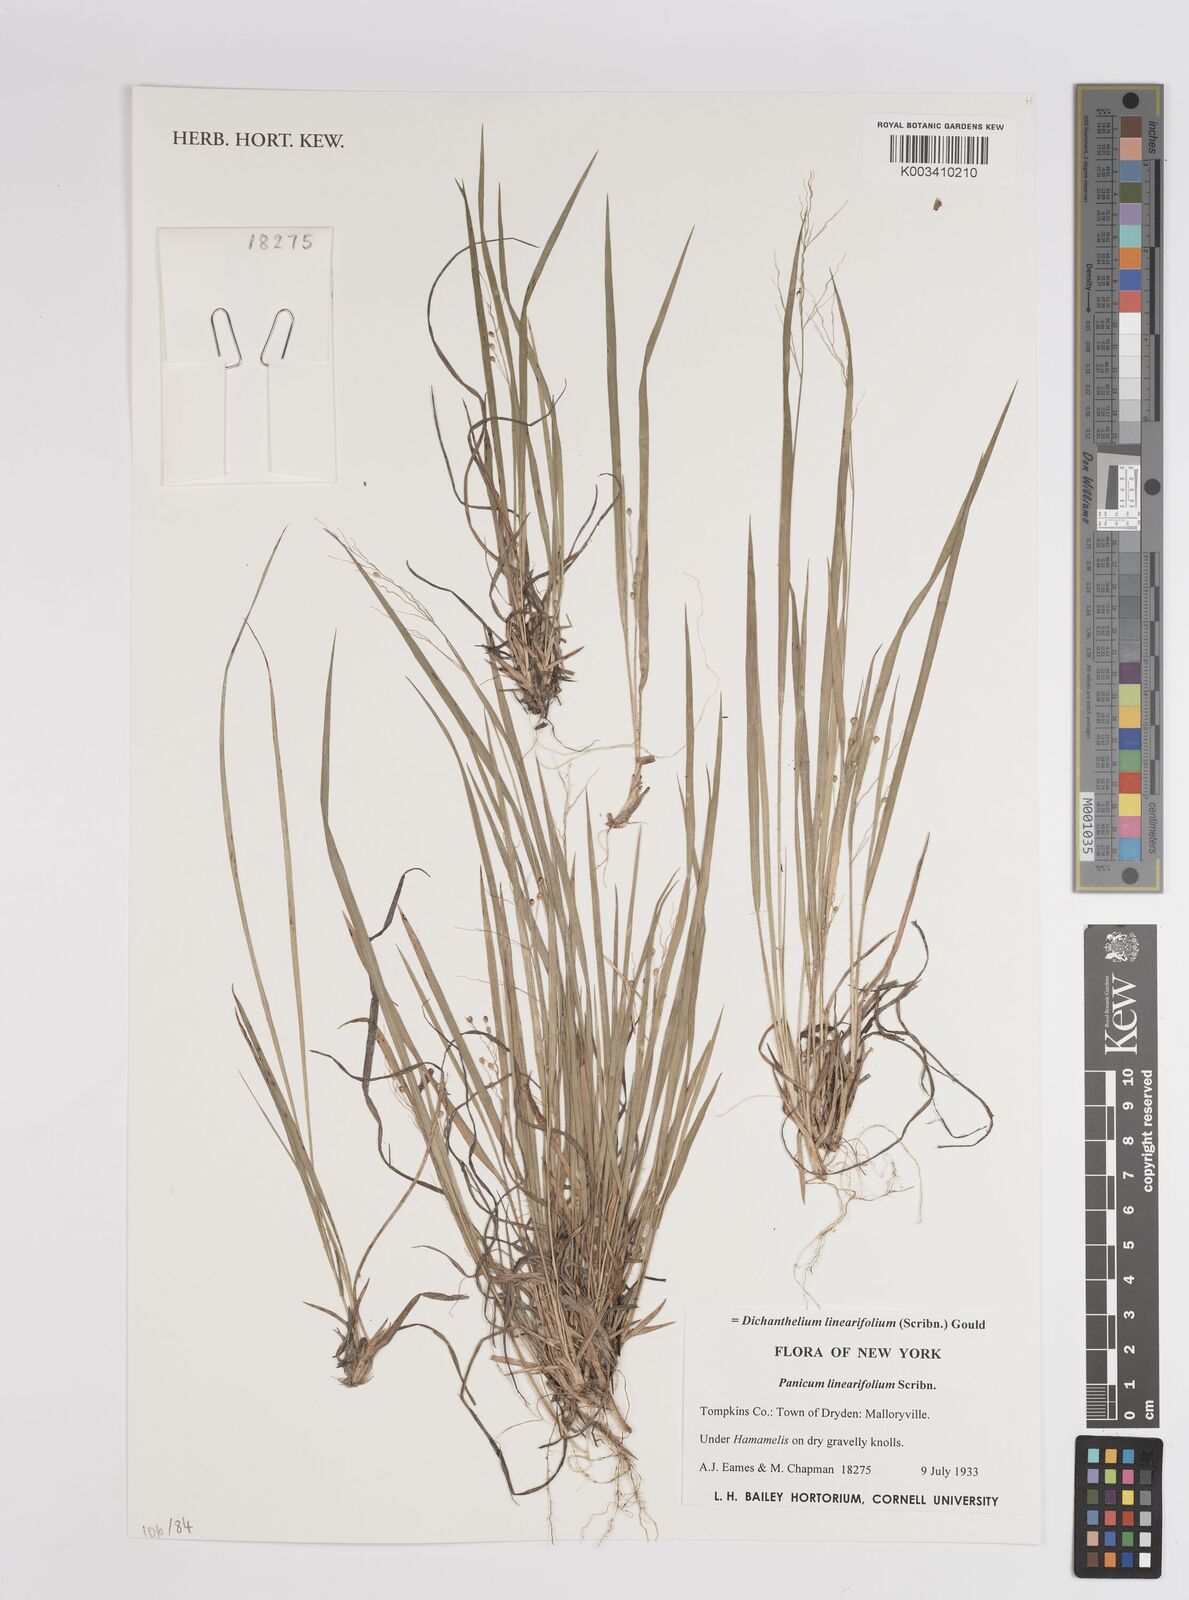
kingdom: Plantae
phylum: Tracheophyta
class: Liliopsida
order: Poales
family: Poaceae
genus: Dichanthelium
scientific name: Dichanthelium linearifolium
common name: Linear-leaved panicgrass
